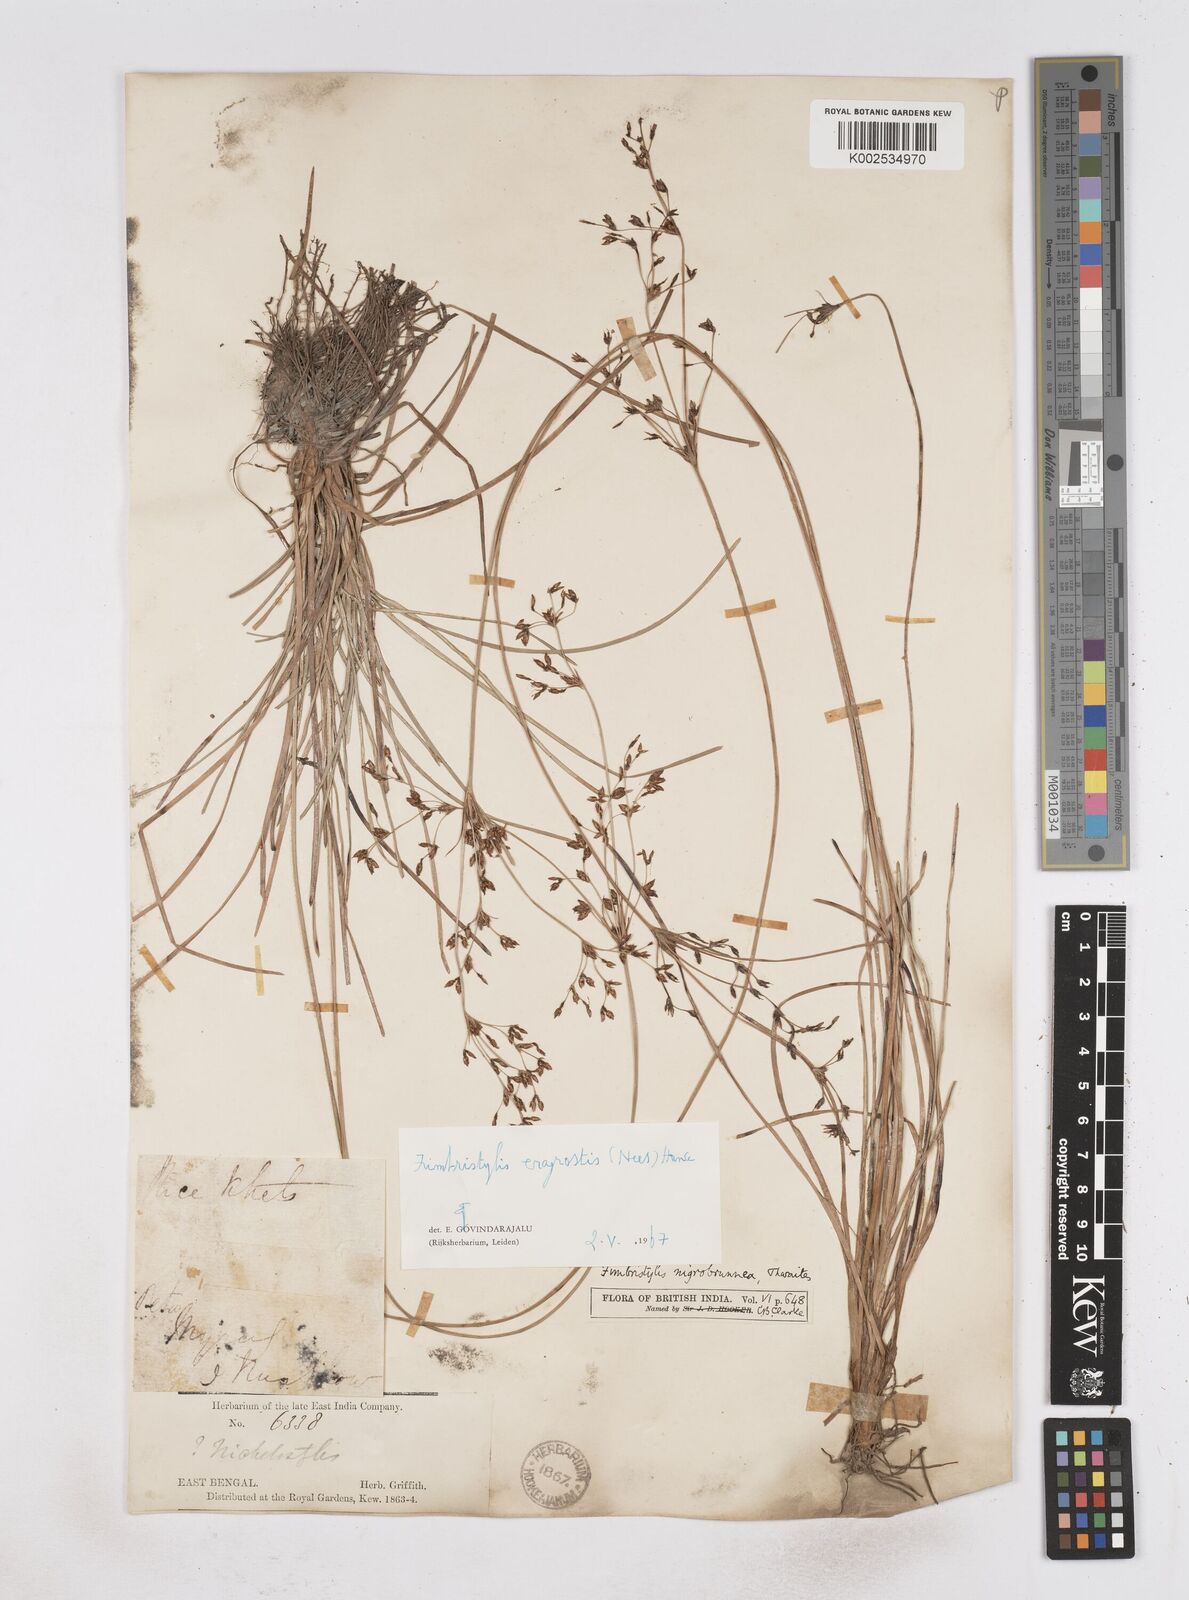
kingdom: Plantae
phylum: Tracheophyta
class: Liliopsida
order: Poales
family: Cyperaceae
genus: Fimbristylis
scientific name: Fimbristylis nigrobrunnea
